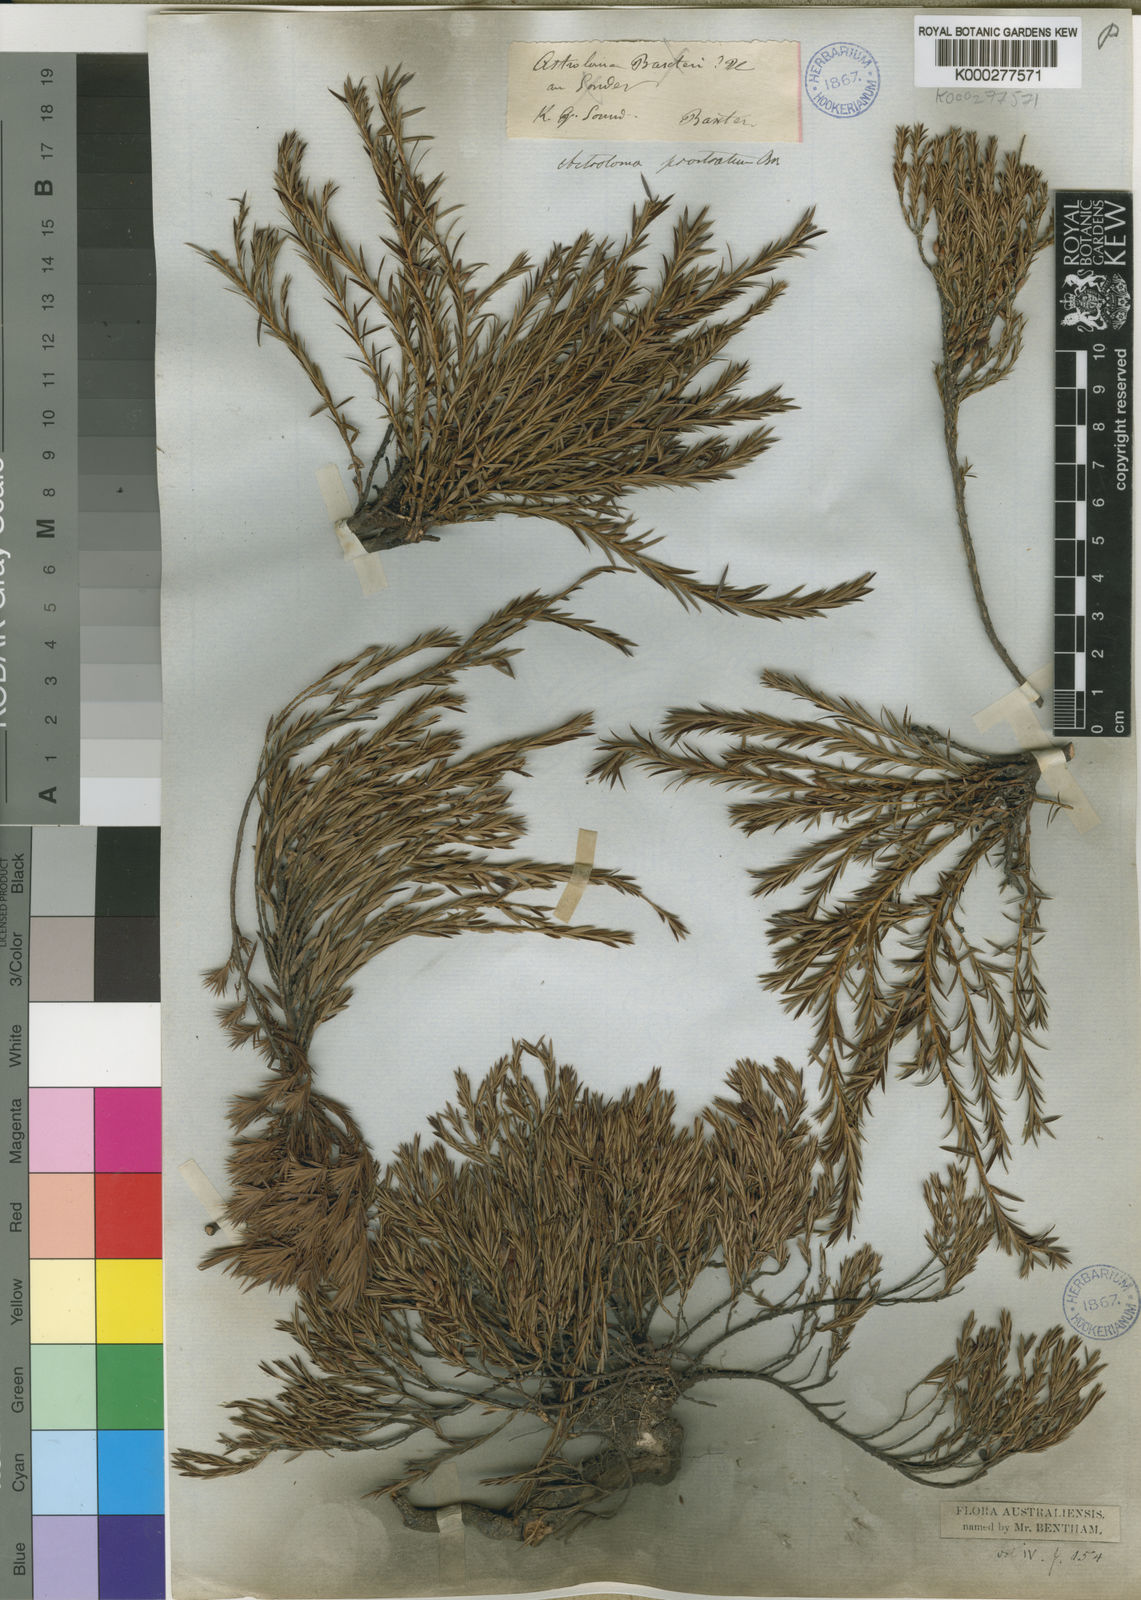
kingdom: Plantae
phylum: Tracheophyta
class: Magnoliopsida
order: Ericales
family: Ericaceae
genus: Styphelia
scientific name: Styphelia prostrata
